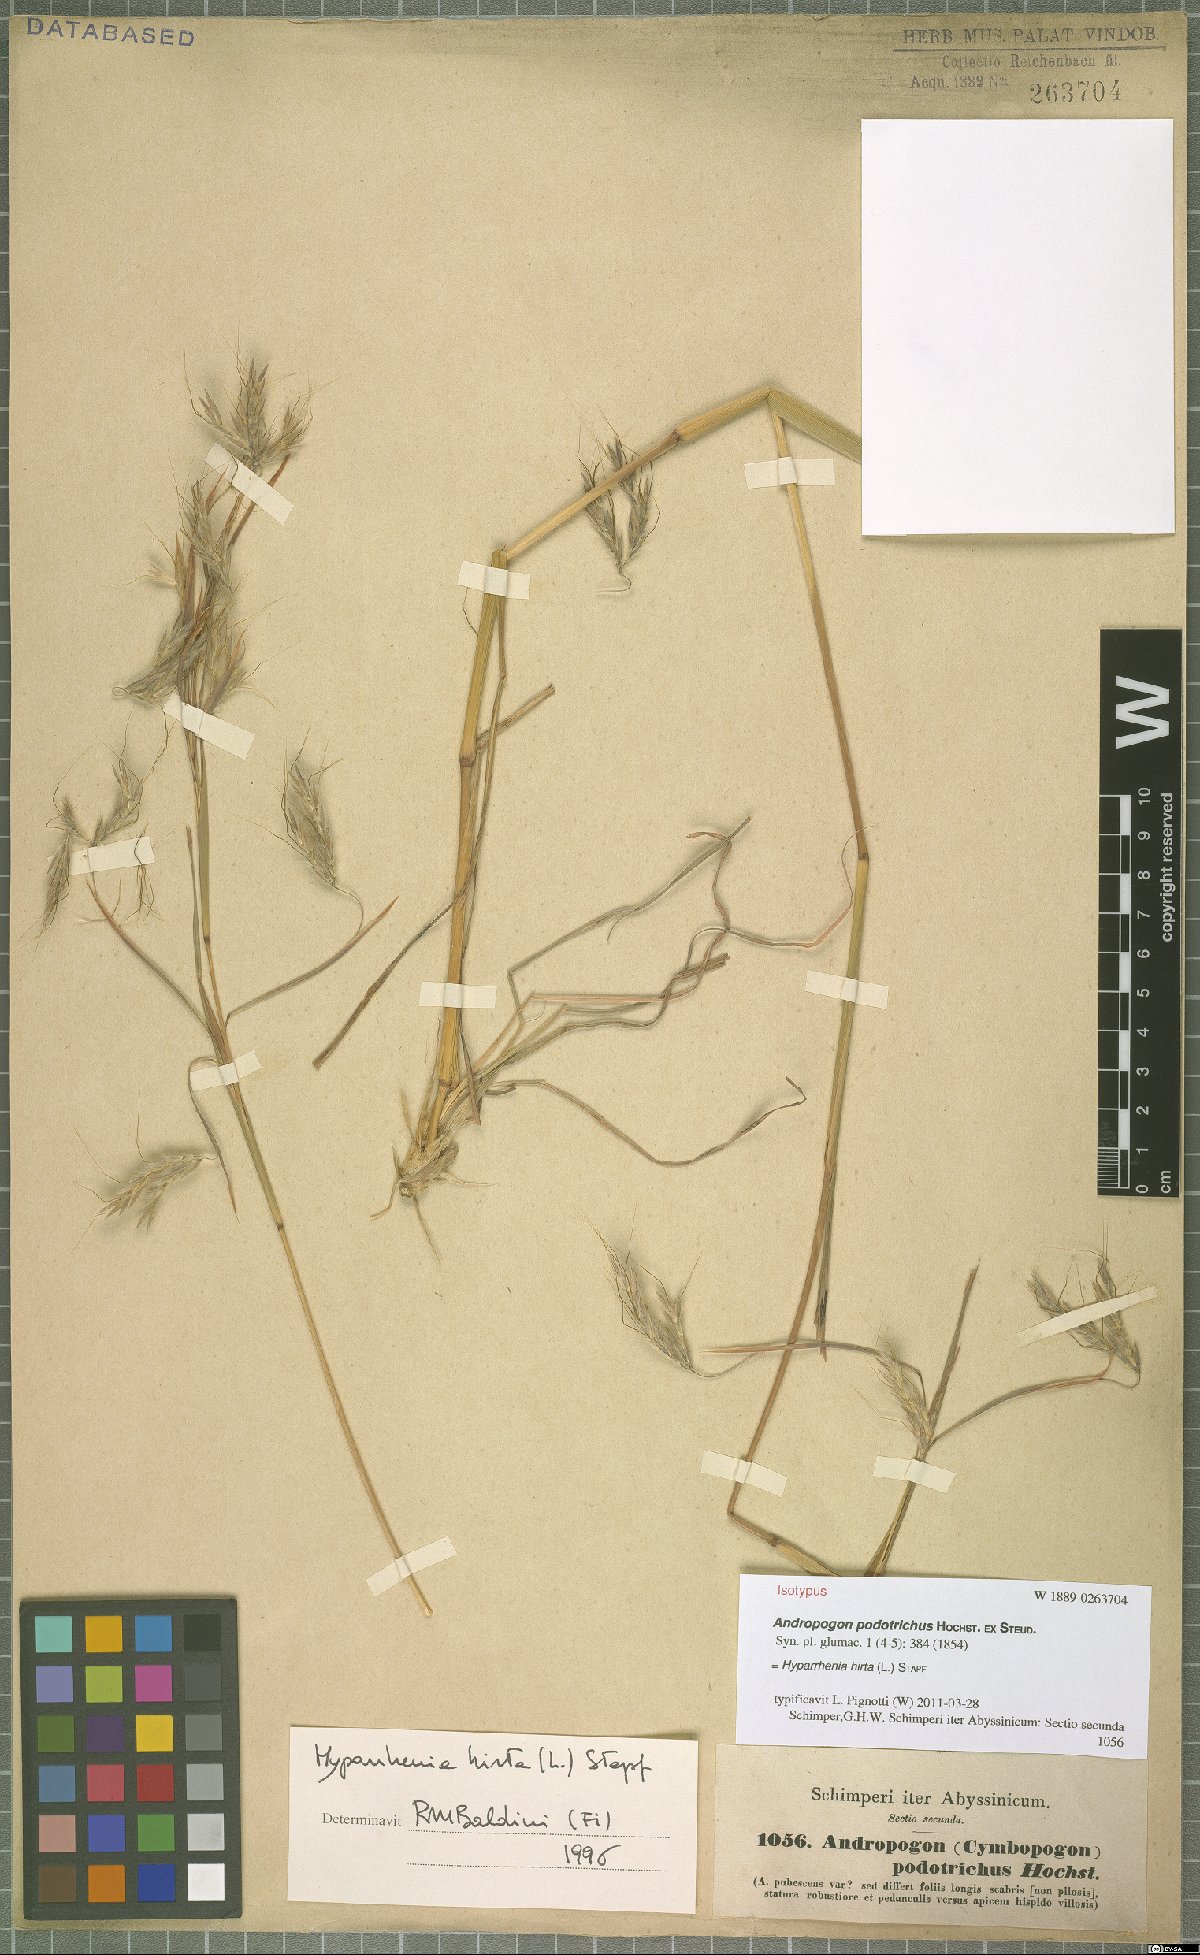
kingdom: Plantae
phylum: Tracheophyta
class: Liliopsida
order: Poales
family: Poaceae
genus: Hyparrhenia
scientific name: Hyparrhenia hirta
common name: Thatching grass
